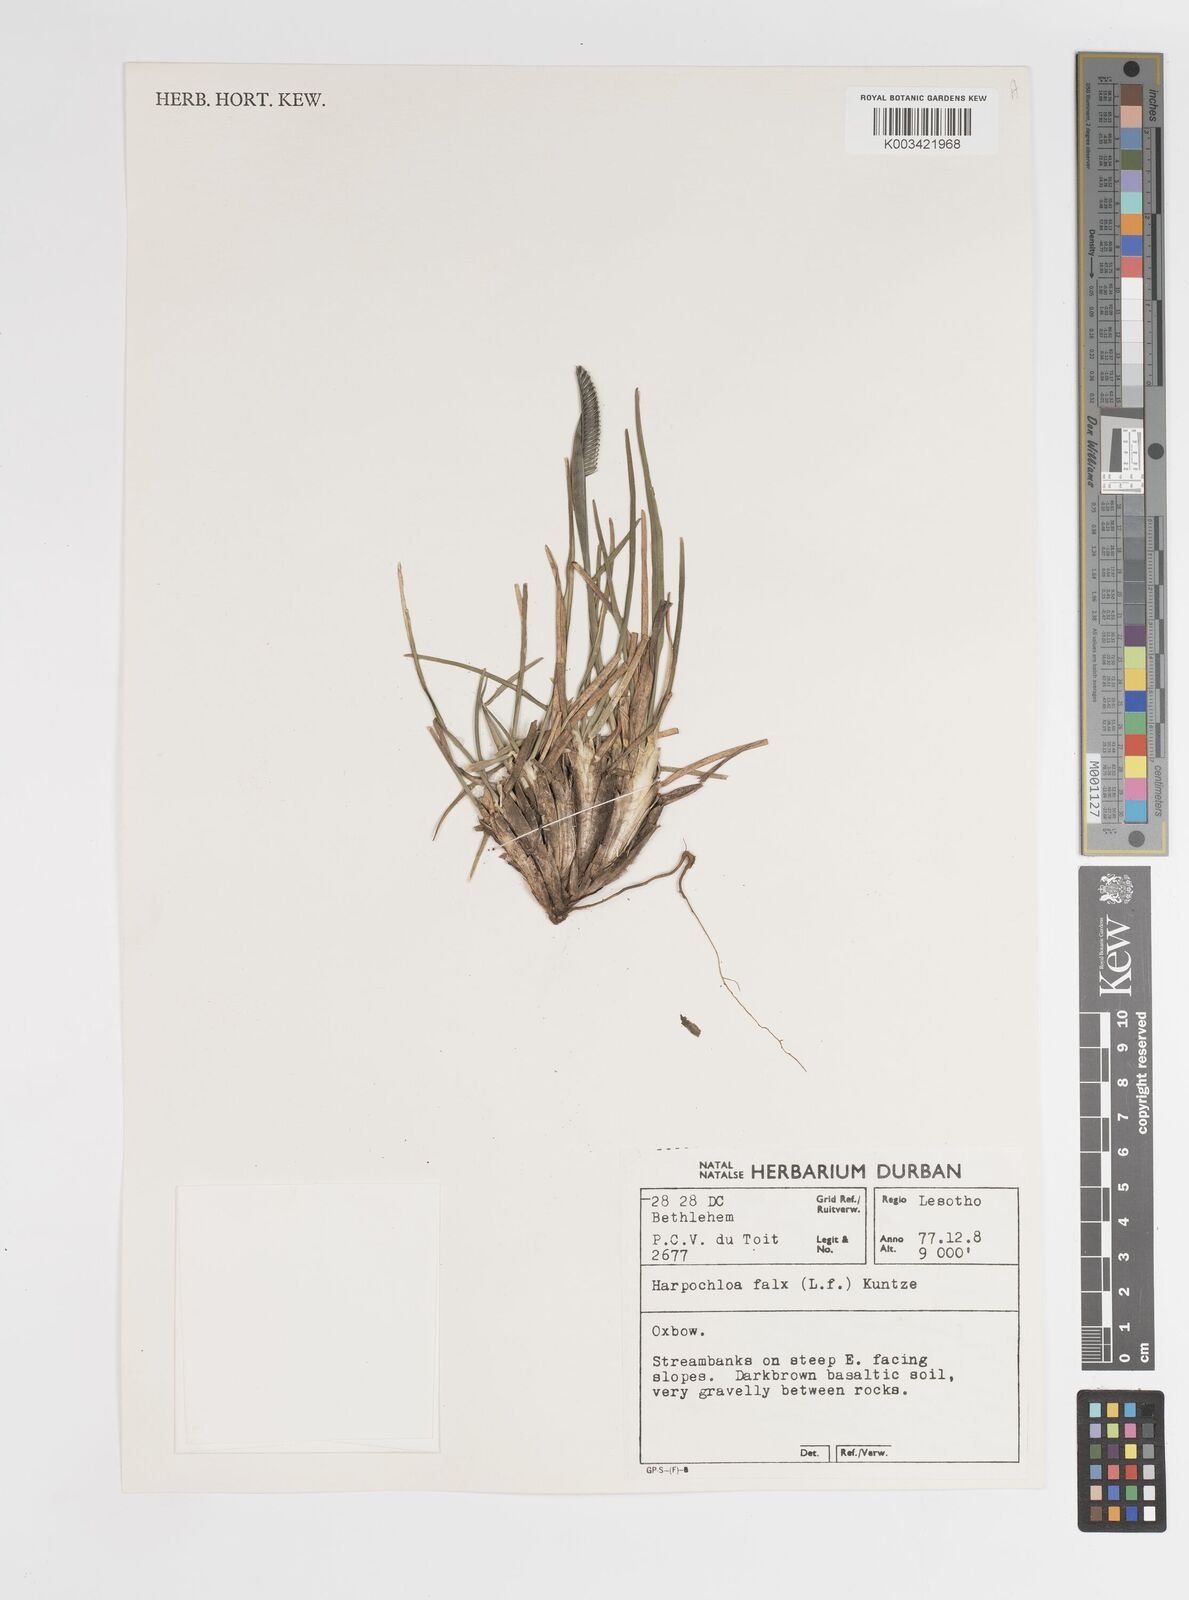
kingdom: Plantae
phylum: Tracheophyta
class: Liliopsida
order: Poales
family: Poaceae
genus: Harpochloa
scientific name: Harpochloa falx
